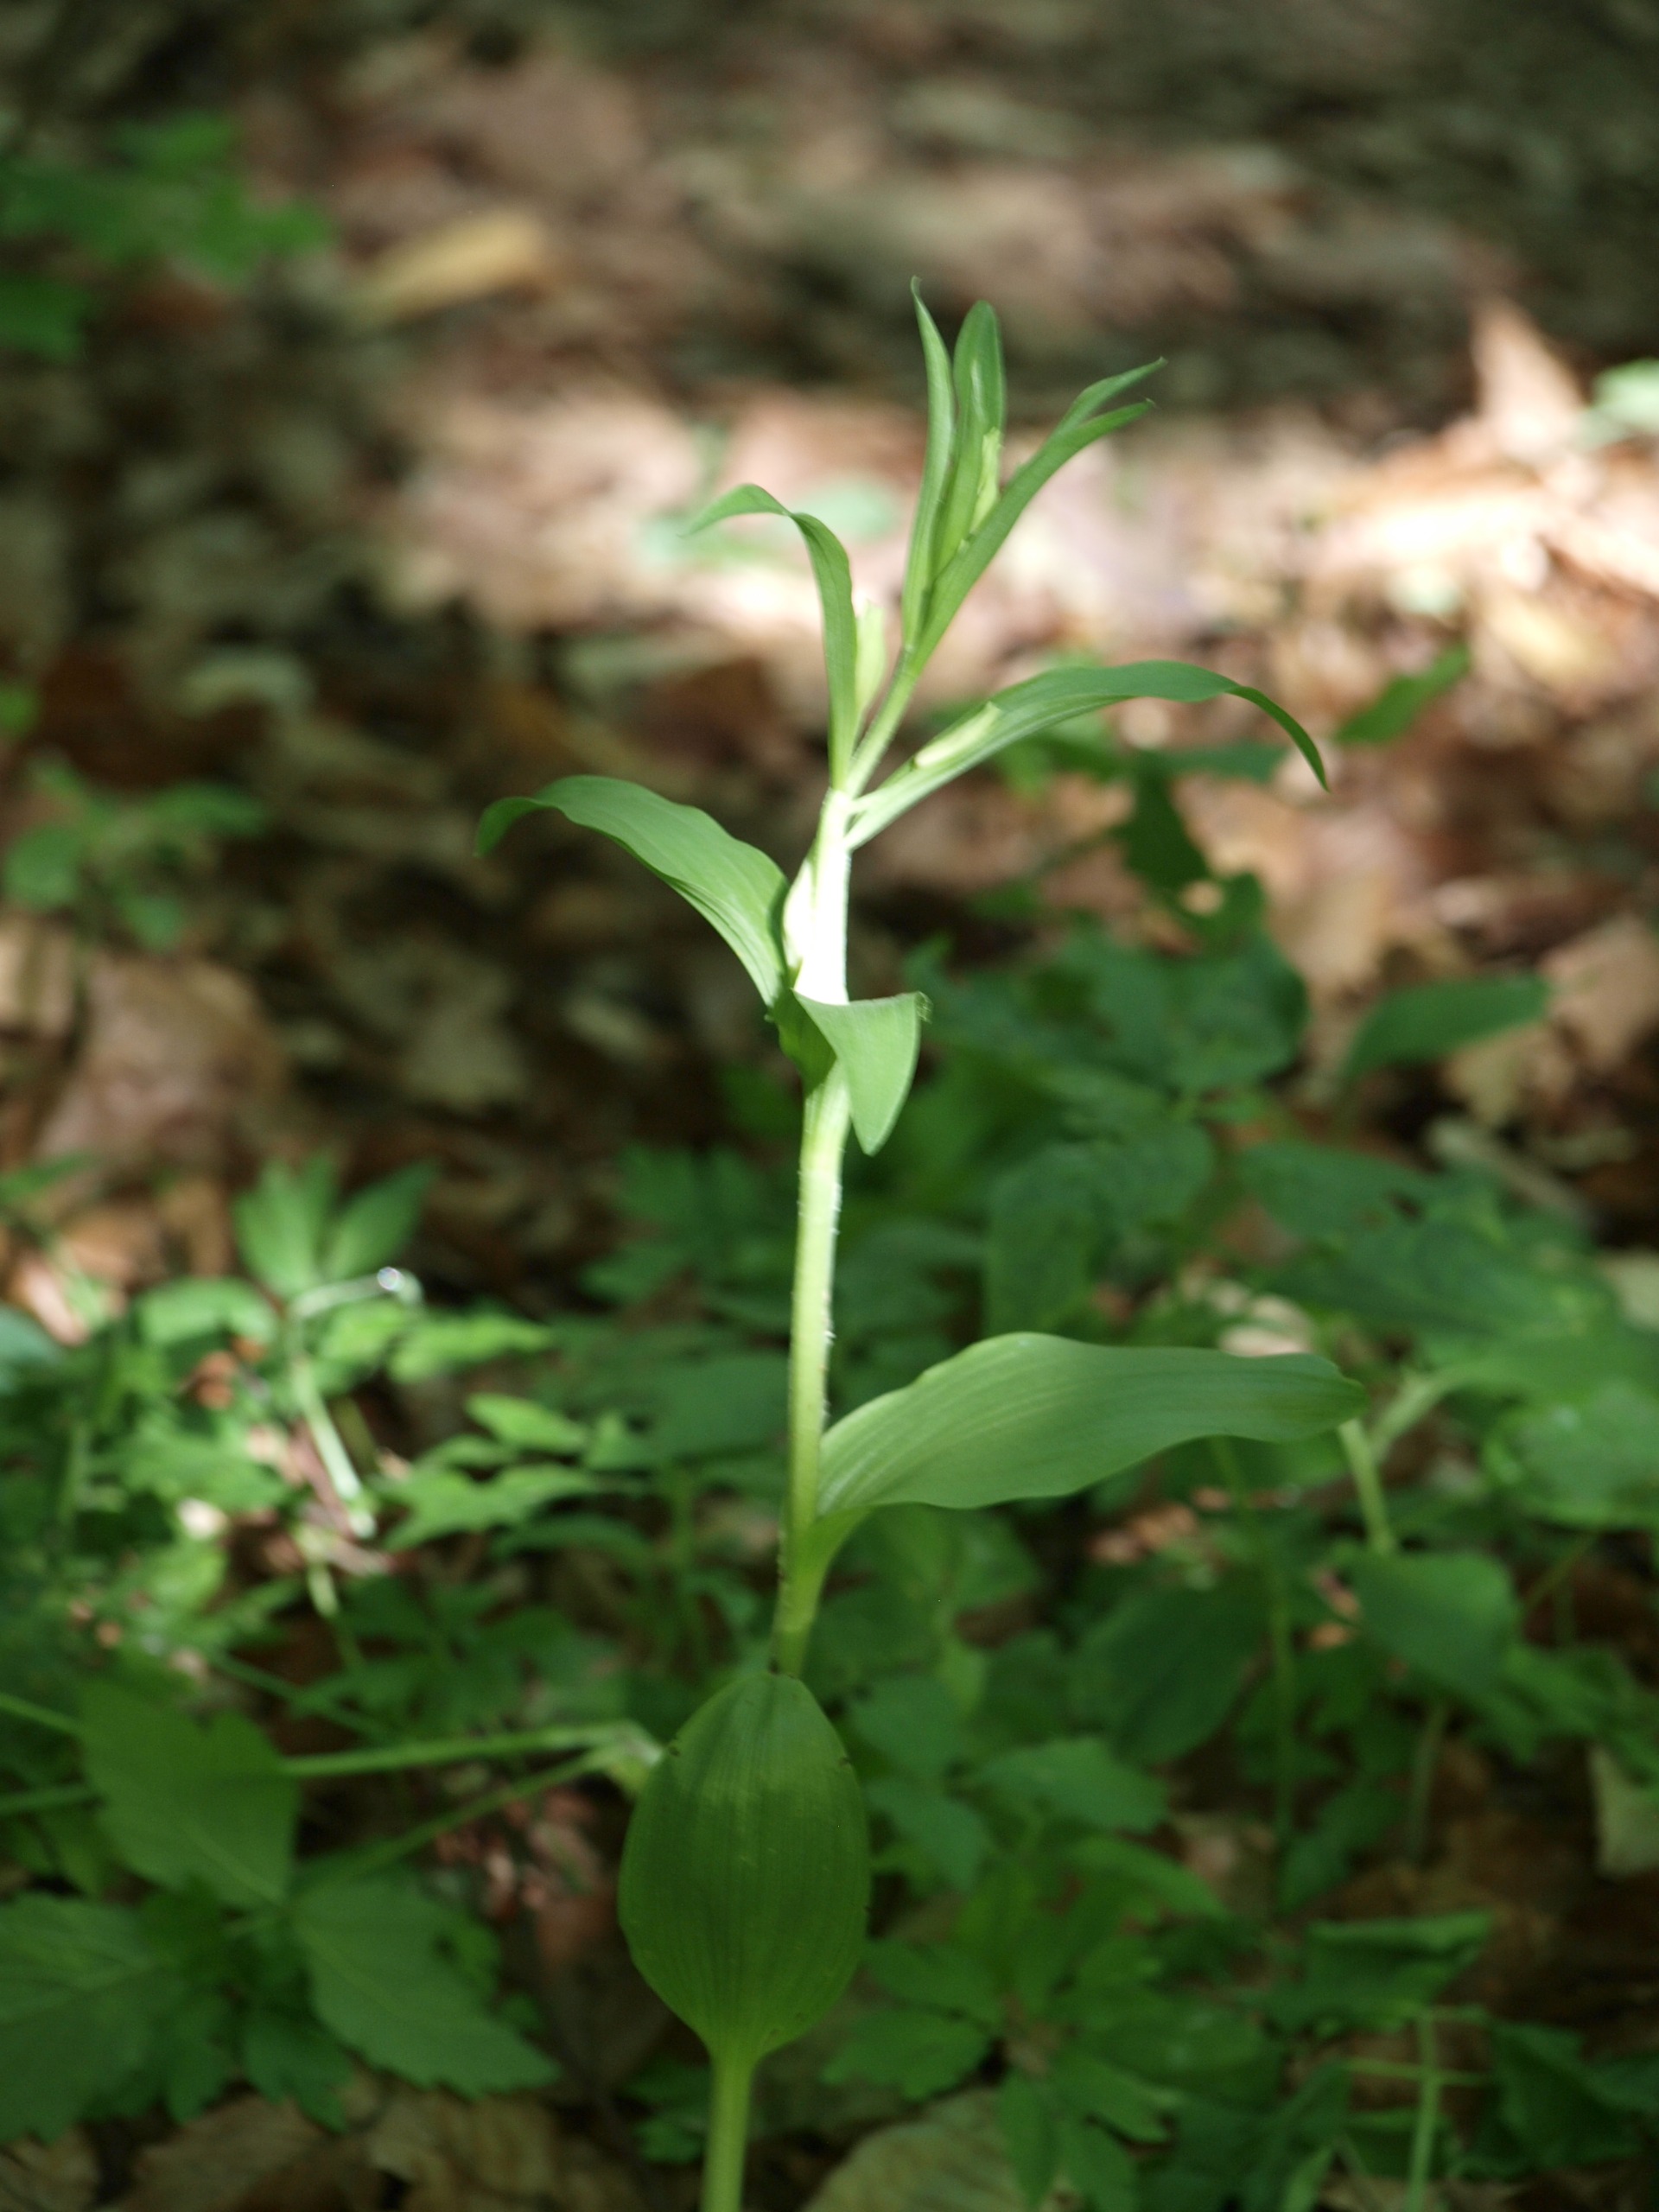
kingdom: Plantae
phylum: Tracheophyta
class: Liliopsida
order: Asparagales
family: Orchidaceae
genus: Cephalanthera
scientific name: Cephalanthera damasonium
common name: Hvidgul skovlilje
